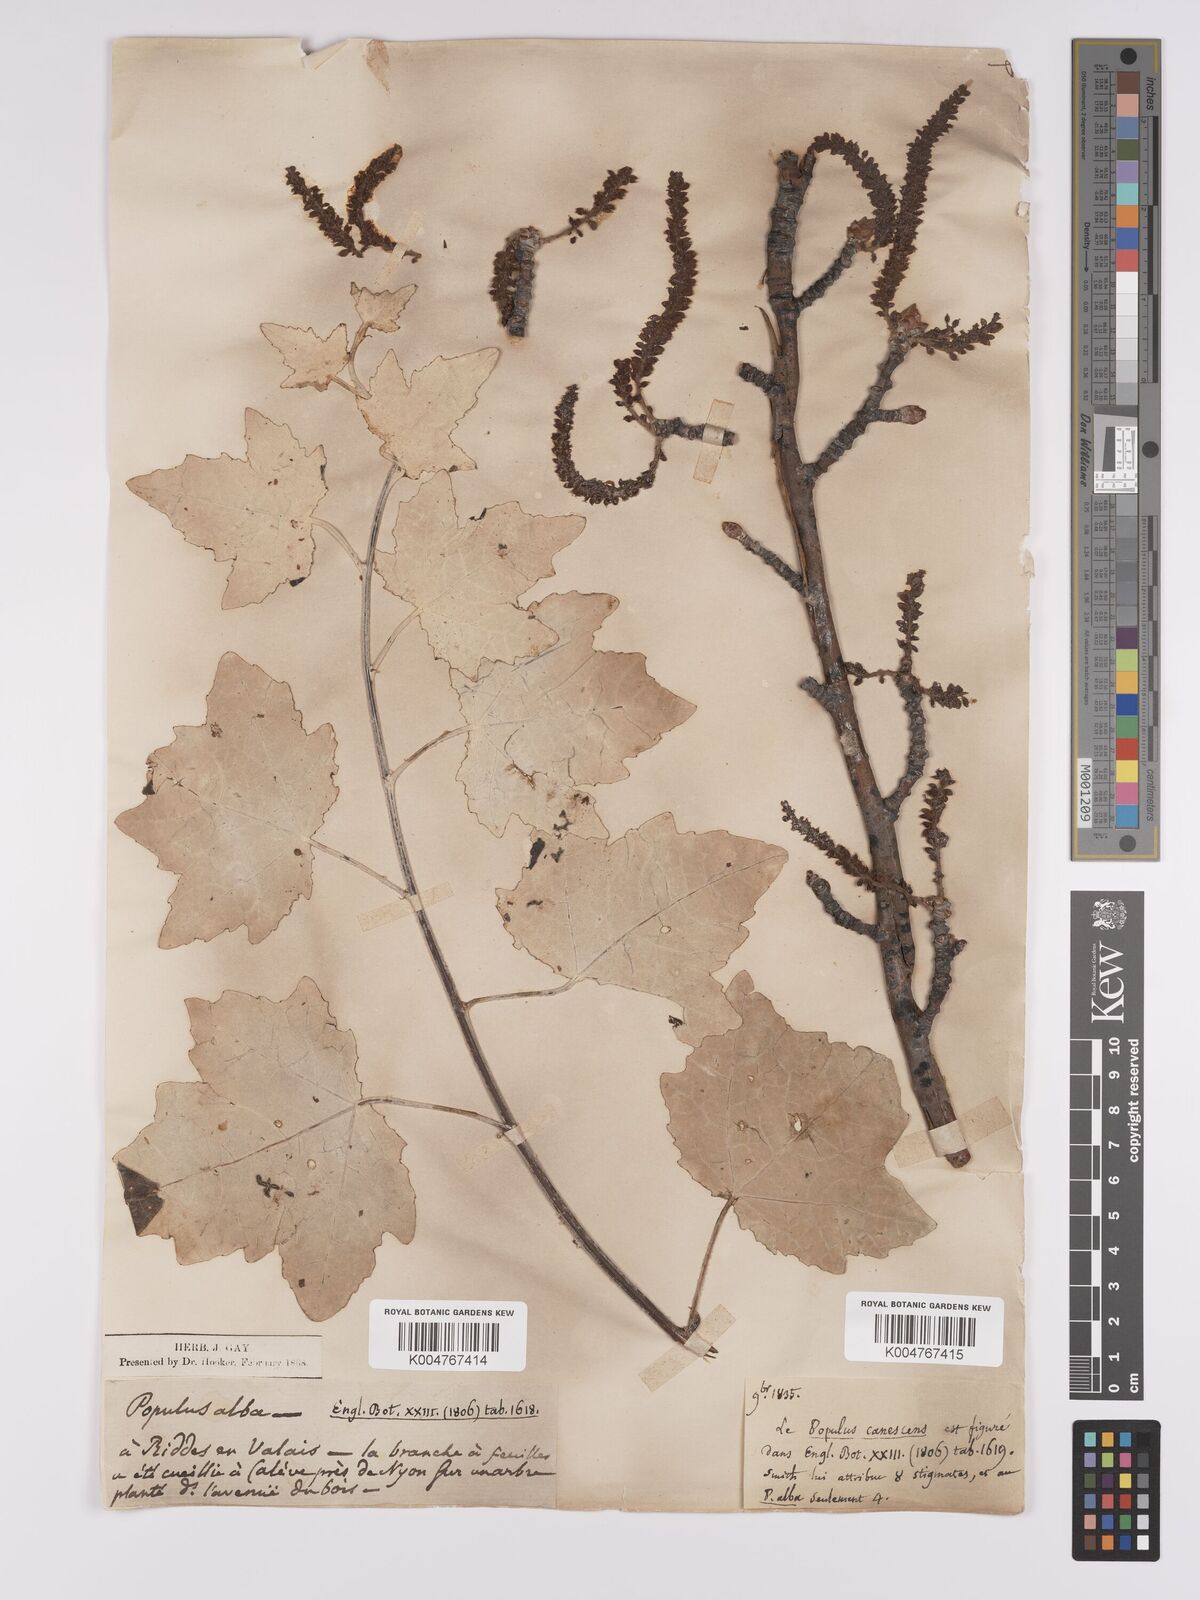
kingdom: Plantae
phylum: Tracheophyta
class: Magnoliopsida
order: Malpighiales
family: Salicaceae
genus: Populus
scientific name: Populus alba
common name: White poplar
